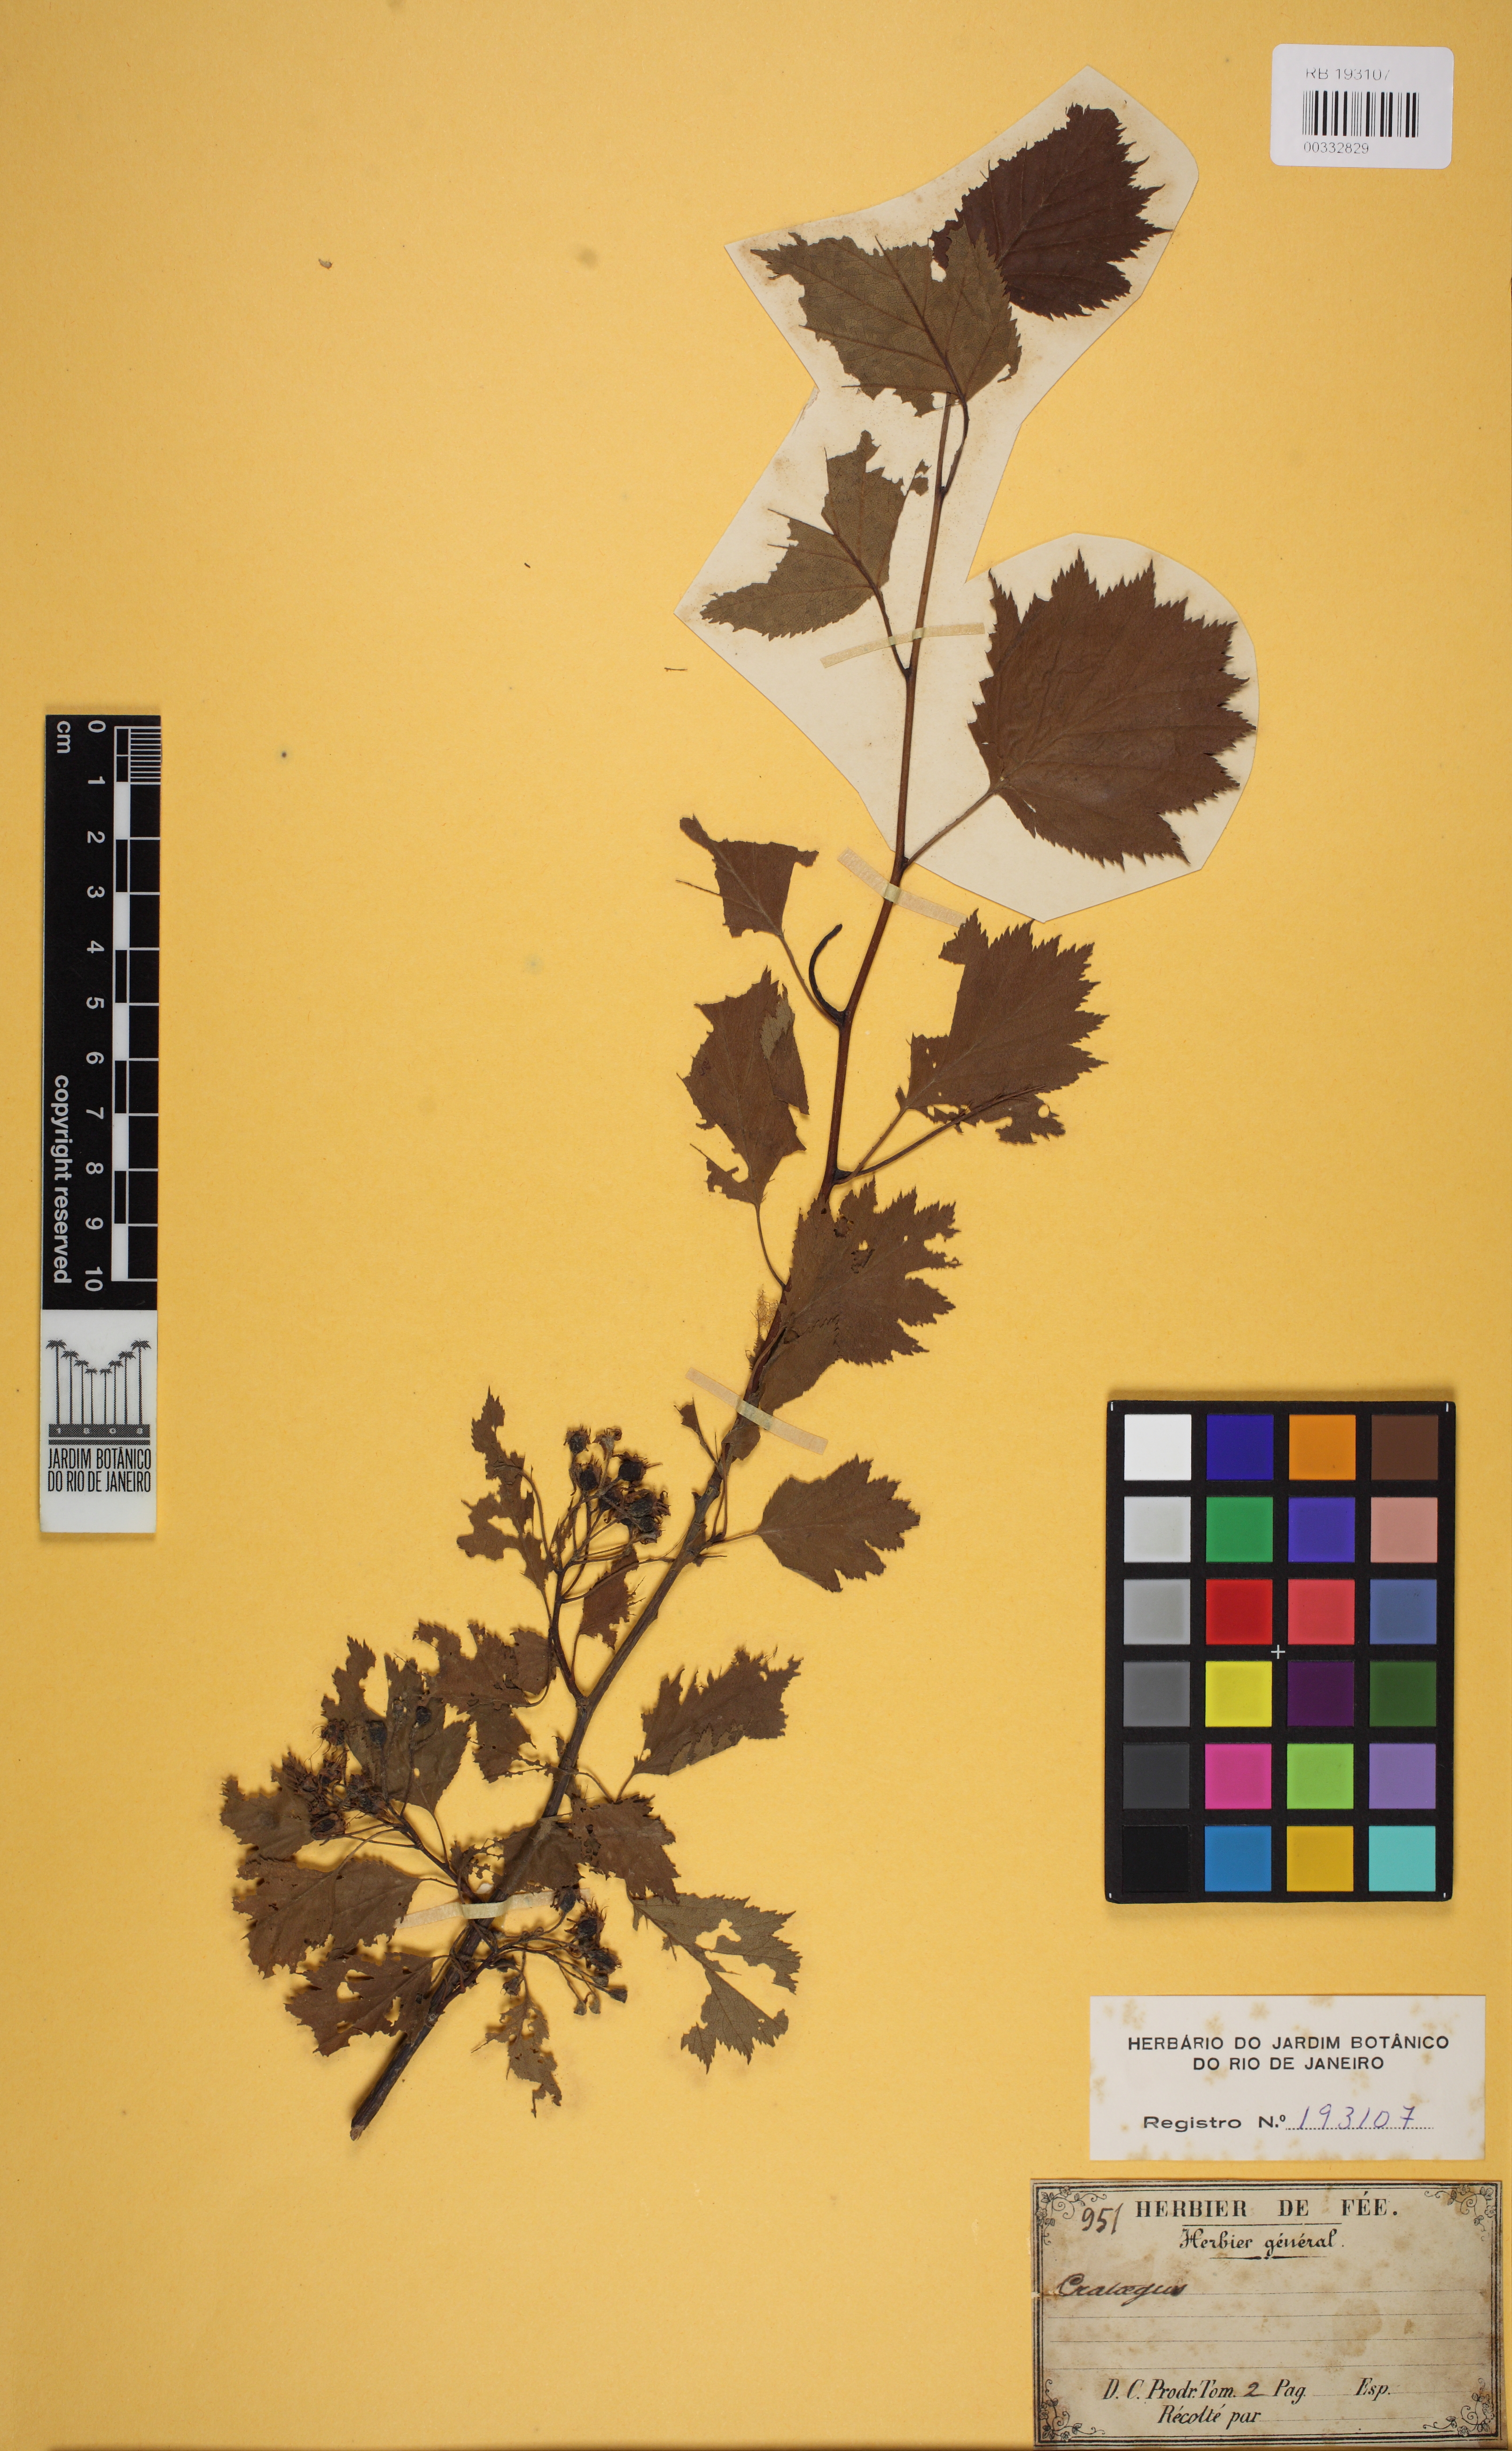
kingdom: Plantae
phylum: Tracheophyta
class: Magnoliopsida
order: Rosales
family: Rosaceae
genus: Crataegus
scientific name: Crataegus
